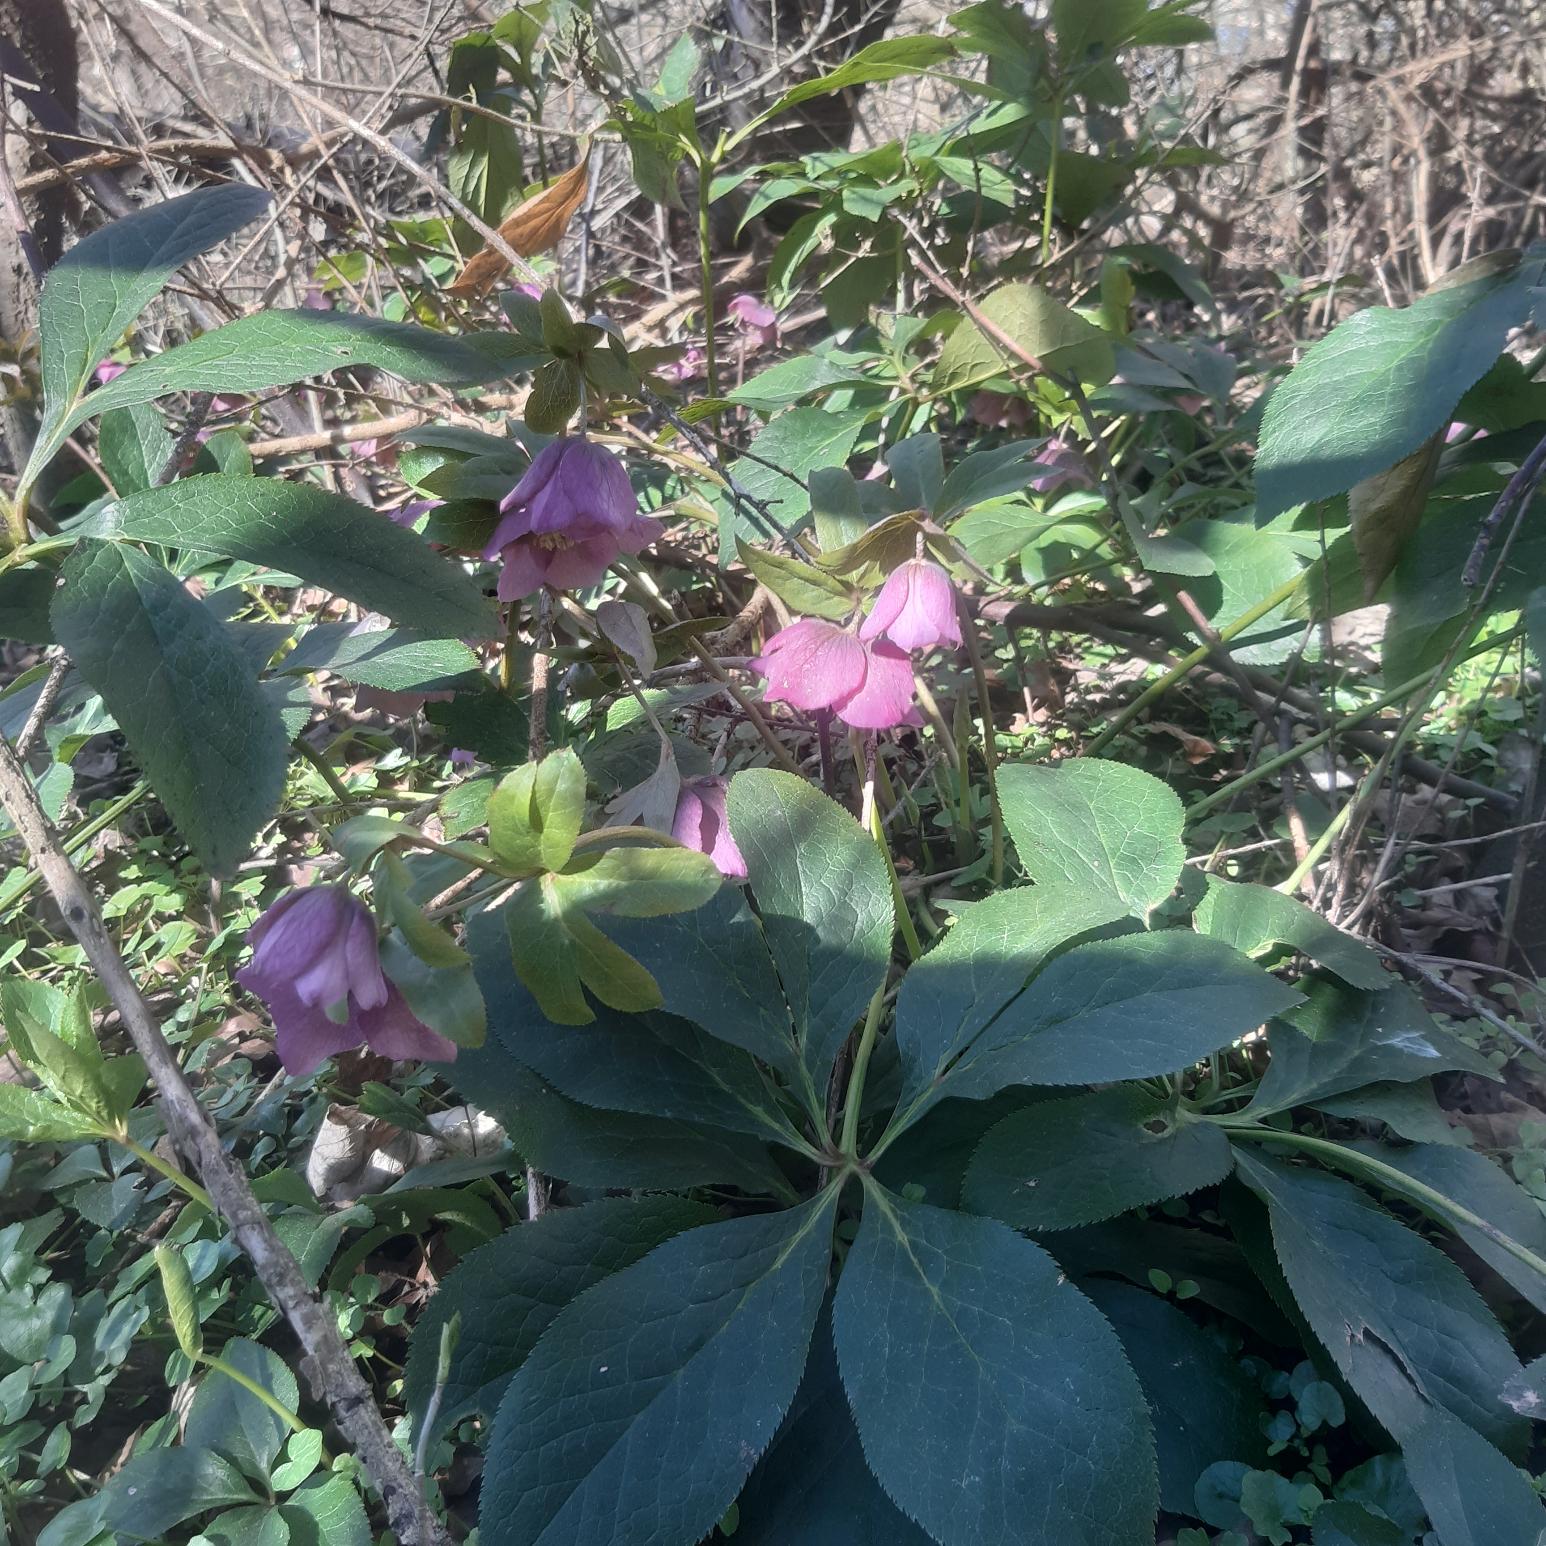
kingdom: Plantae
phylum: Tracheophyta
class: Magnoliopsida
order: Ranunculales
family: Ranunculaceae
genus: Helleborus
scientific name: Helleborus orientalis
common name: Rød julerose
